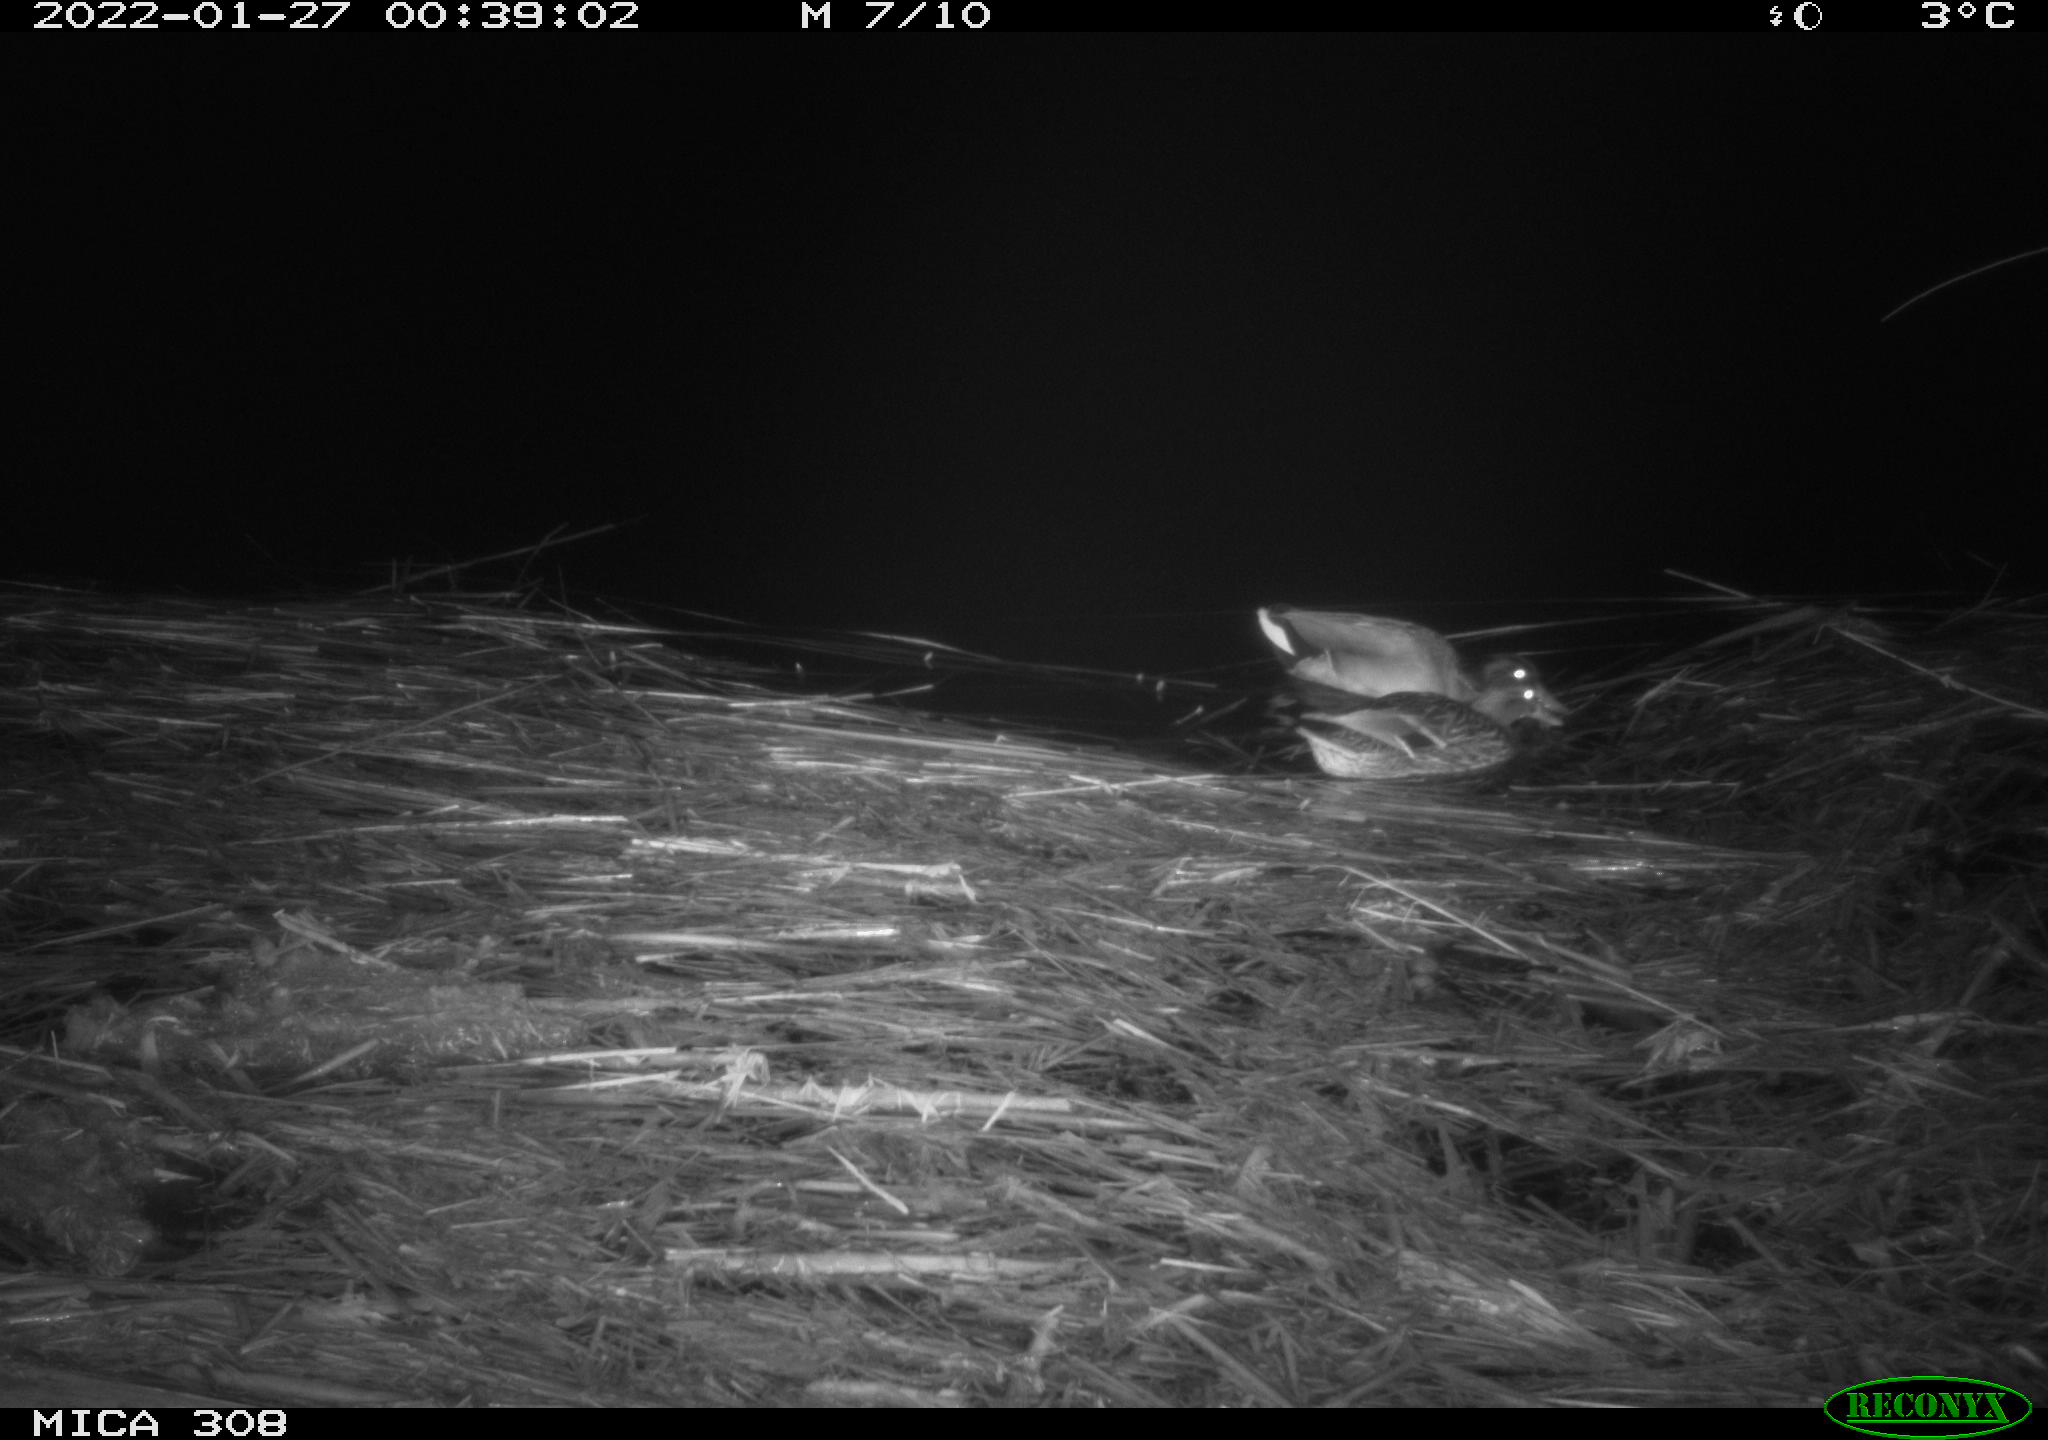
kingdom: Animalia
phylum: Chordata
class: Aves
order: Anseriformes
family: Anatidae
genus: Anas
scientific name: Anas platyrhynchos
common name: Mallard
